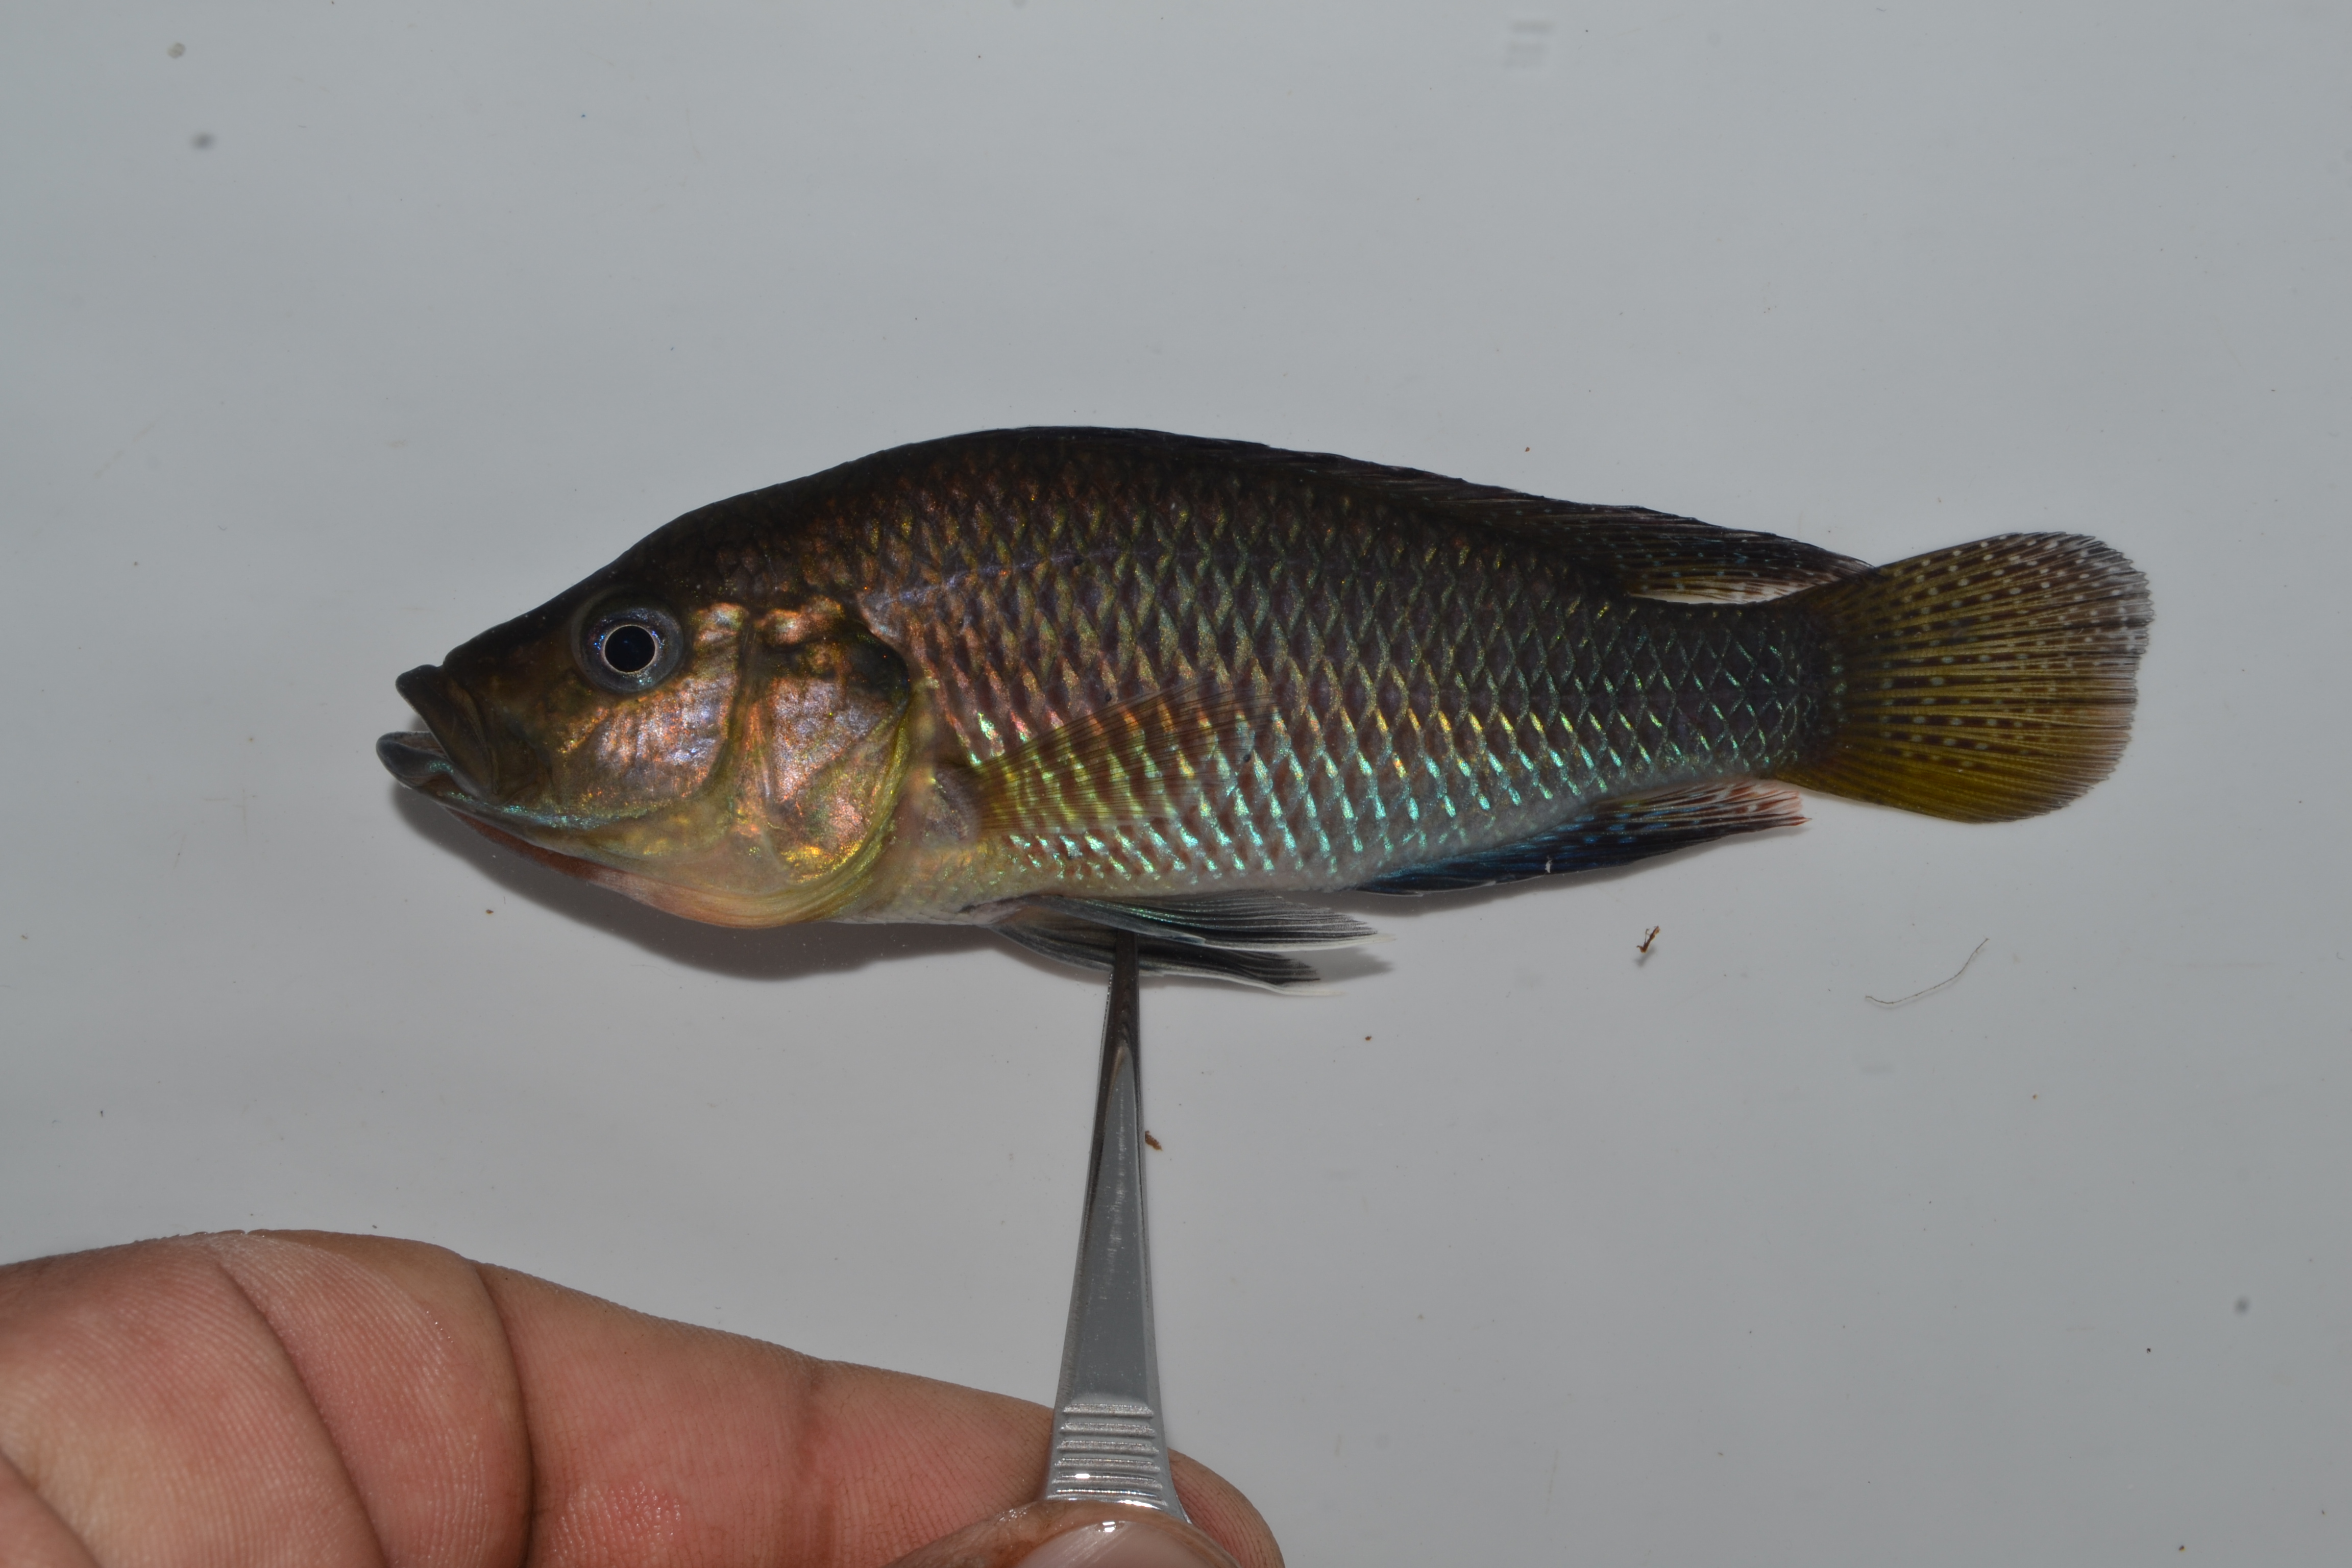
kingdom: Animalia
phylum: Chordata
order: Perciformes
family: Cichlidae
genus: Pseudocrenilabrus
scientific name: Pseudocrenilabrus philander
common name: Southern mouthbrooder
